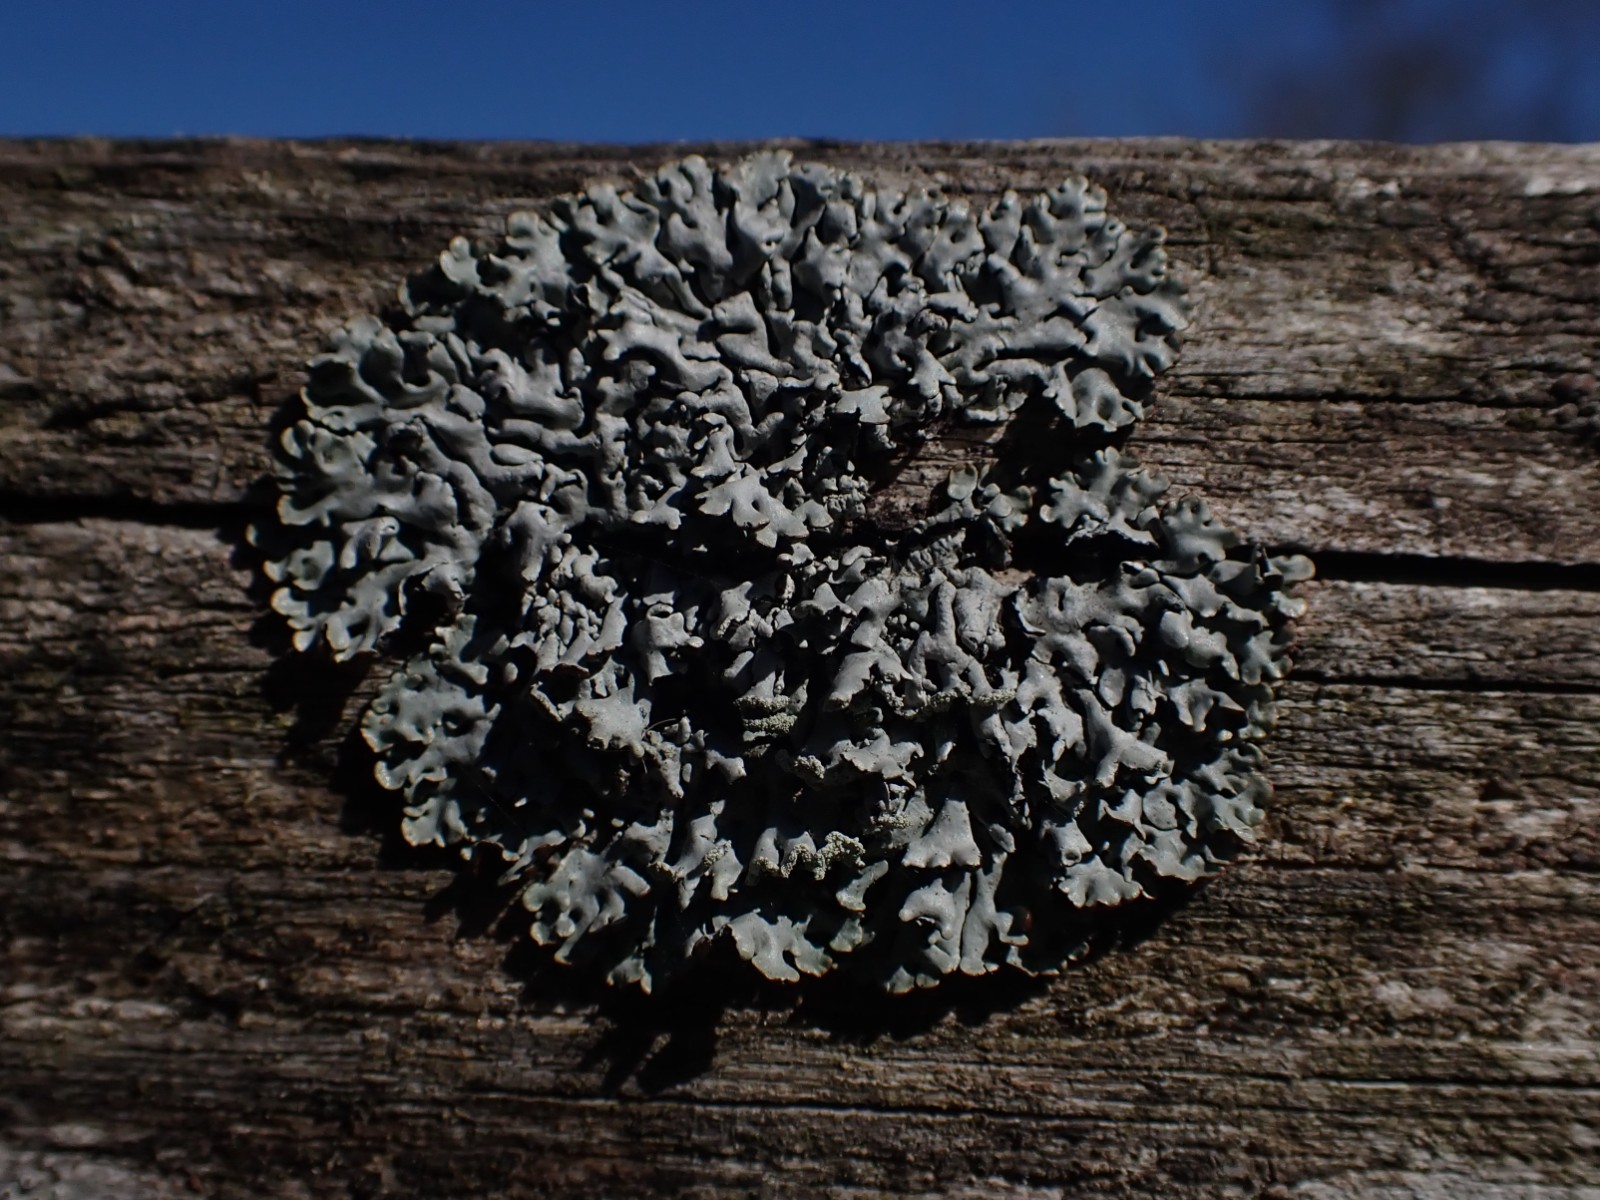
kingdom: Fungi
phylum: Ascomycota
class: Lecanoromycetes
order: Lecanorales
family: Parmeliaceae
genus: Hypogymnia
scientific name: Hypogymnia physodes
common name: almindelig kvistlav
